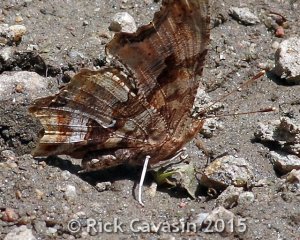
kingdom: Animalia
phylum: Arthropoda
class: Insecta
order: Lepidoptera
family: Nymphalidae
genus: Polygonia
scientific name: Polygonia comma
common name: Eastern Comma
